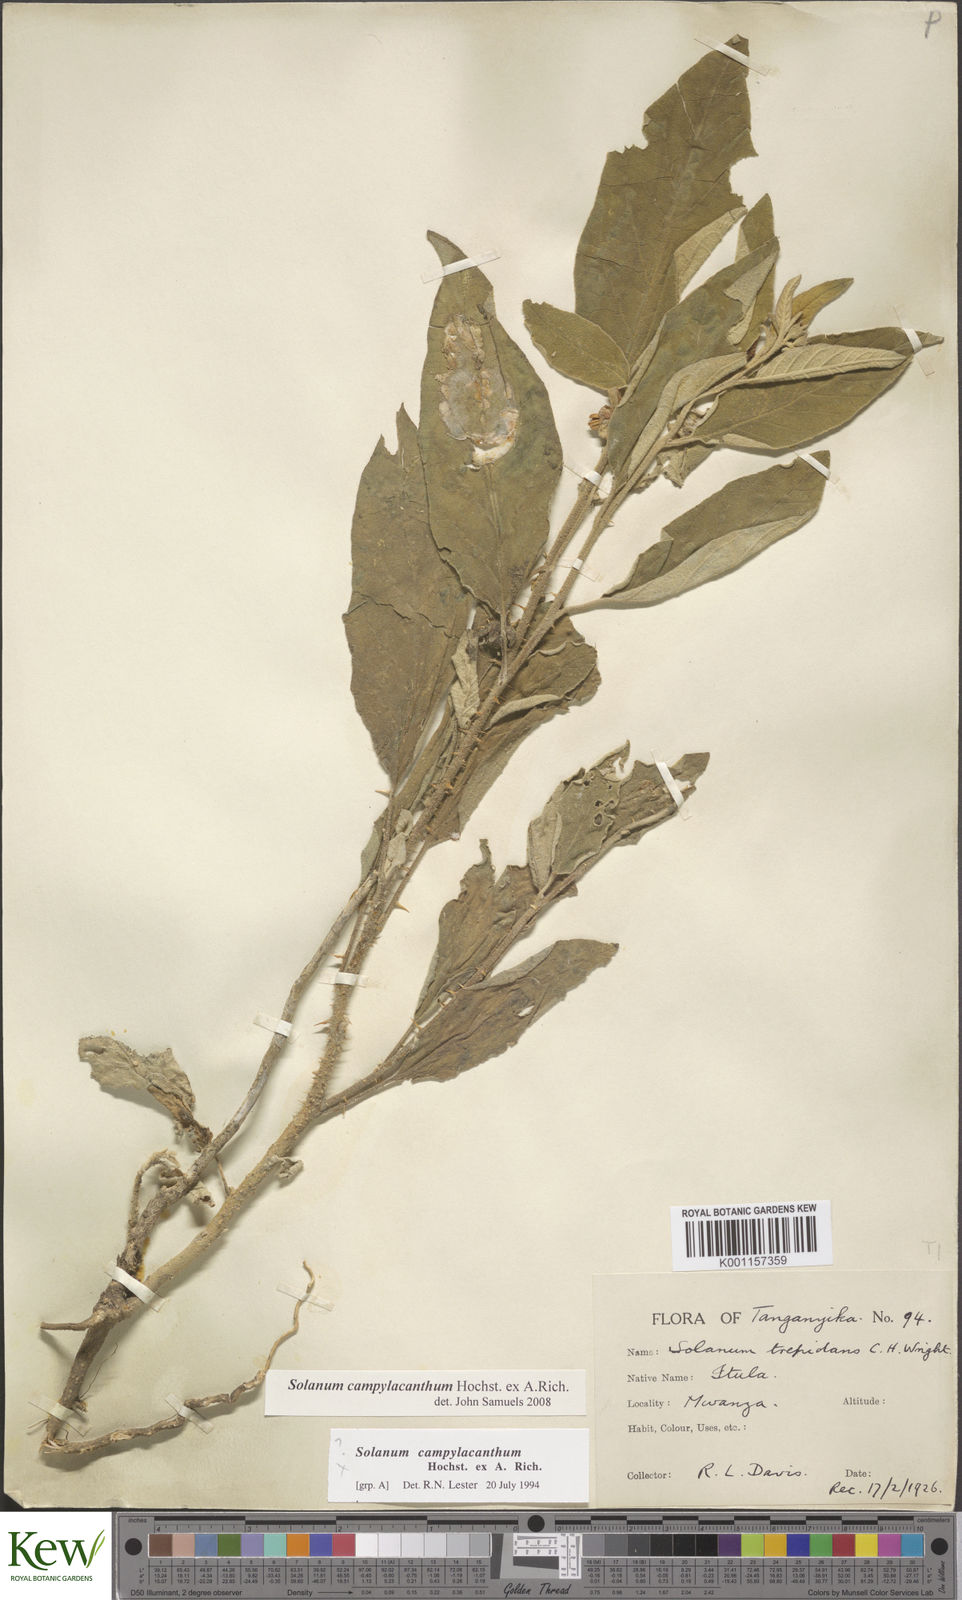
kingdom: Plantae
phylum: Tracheophyta
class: Magnoliopsida
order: Solanales
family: Solanaceae
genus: Solanum
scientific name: Solanum campylacanthum
